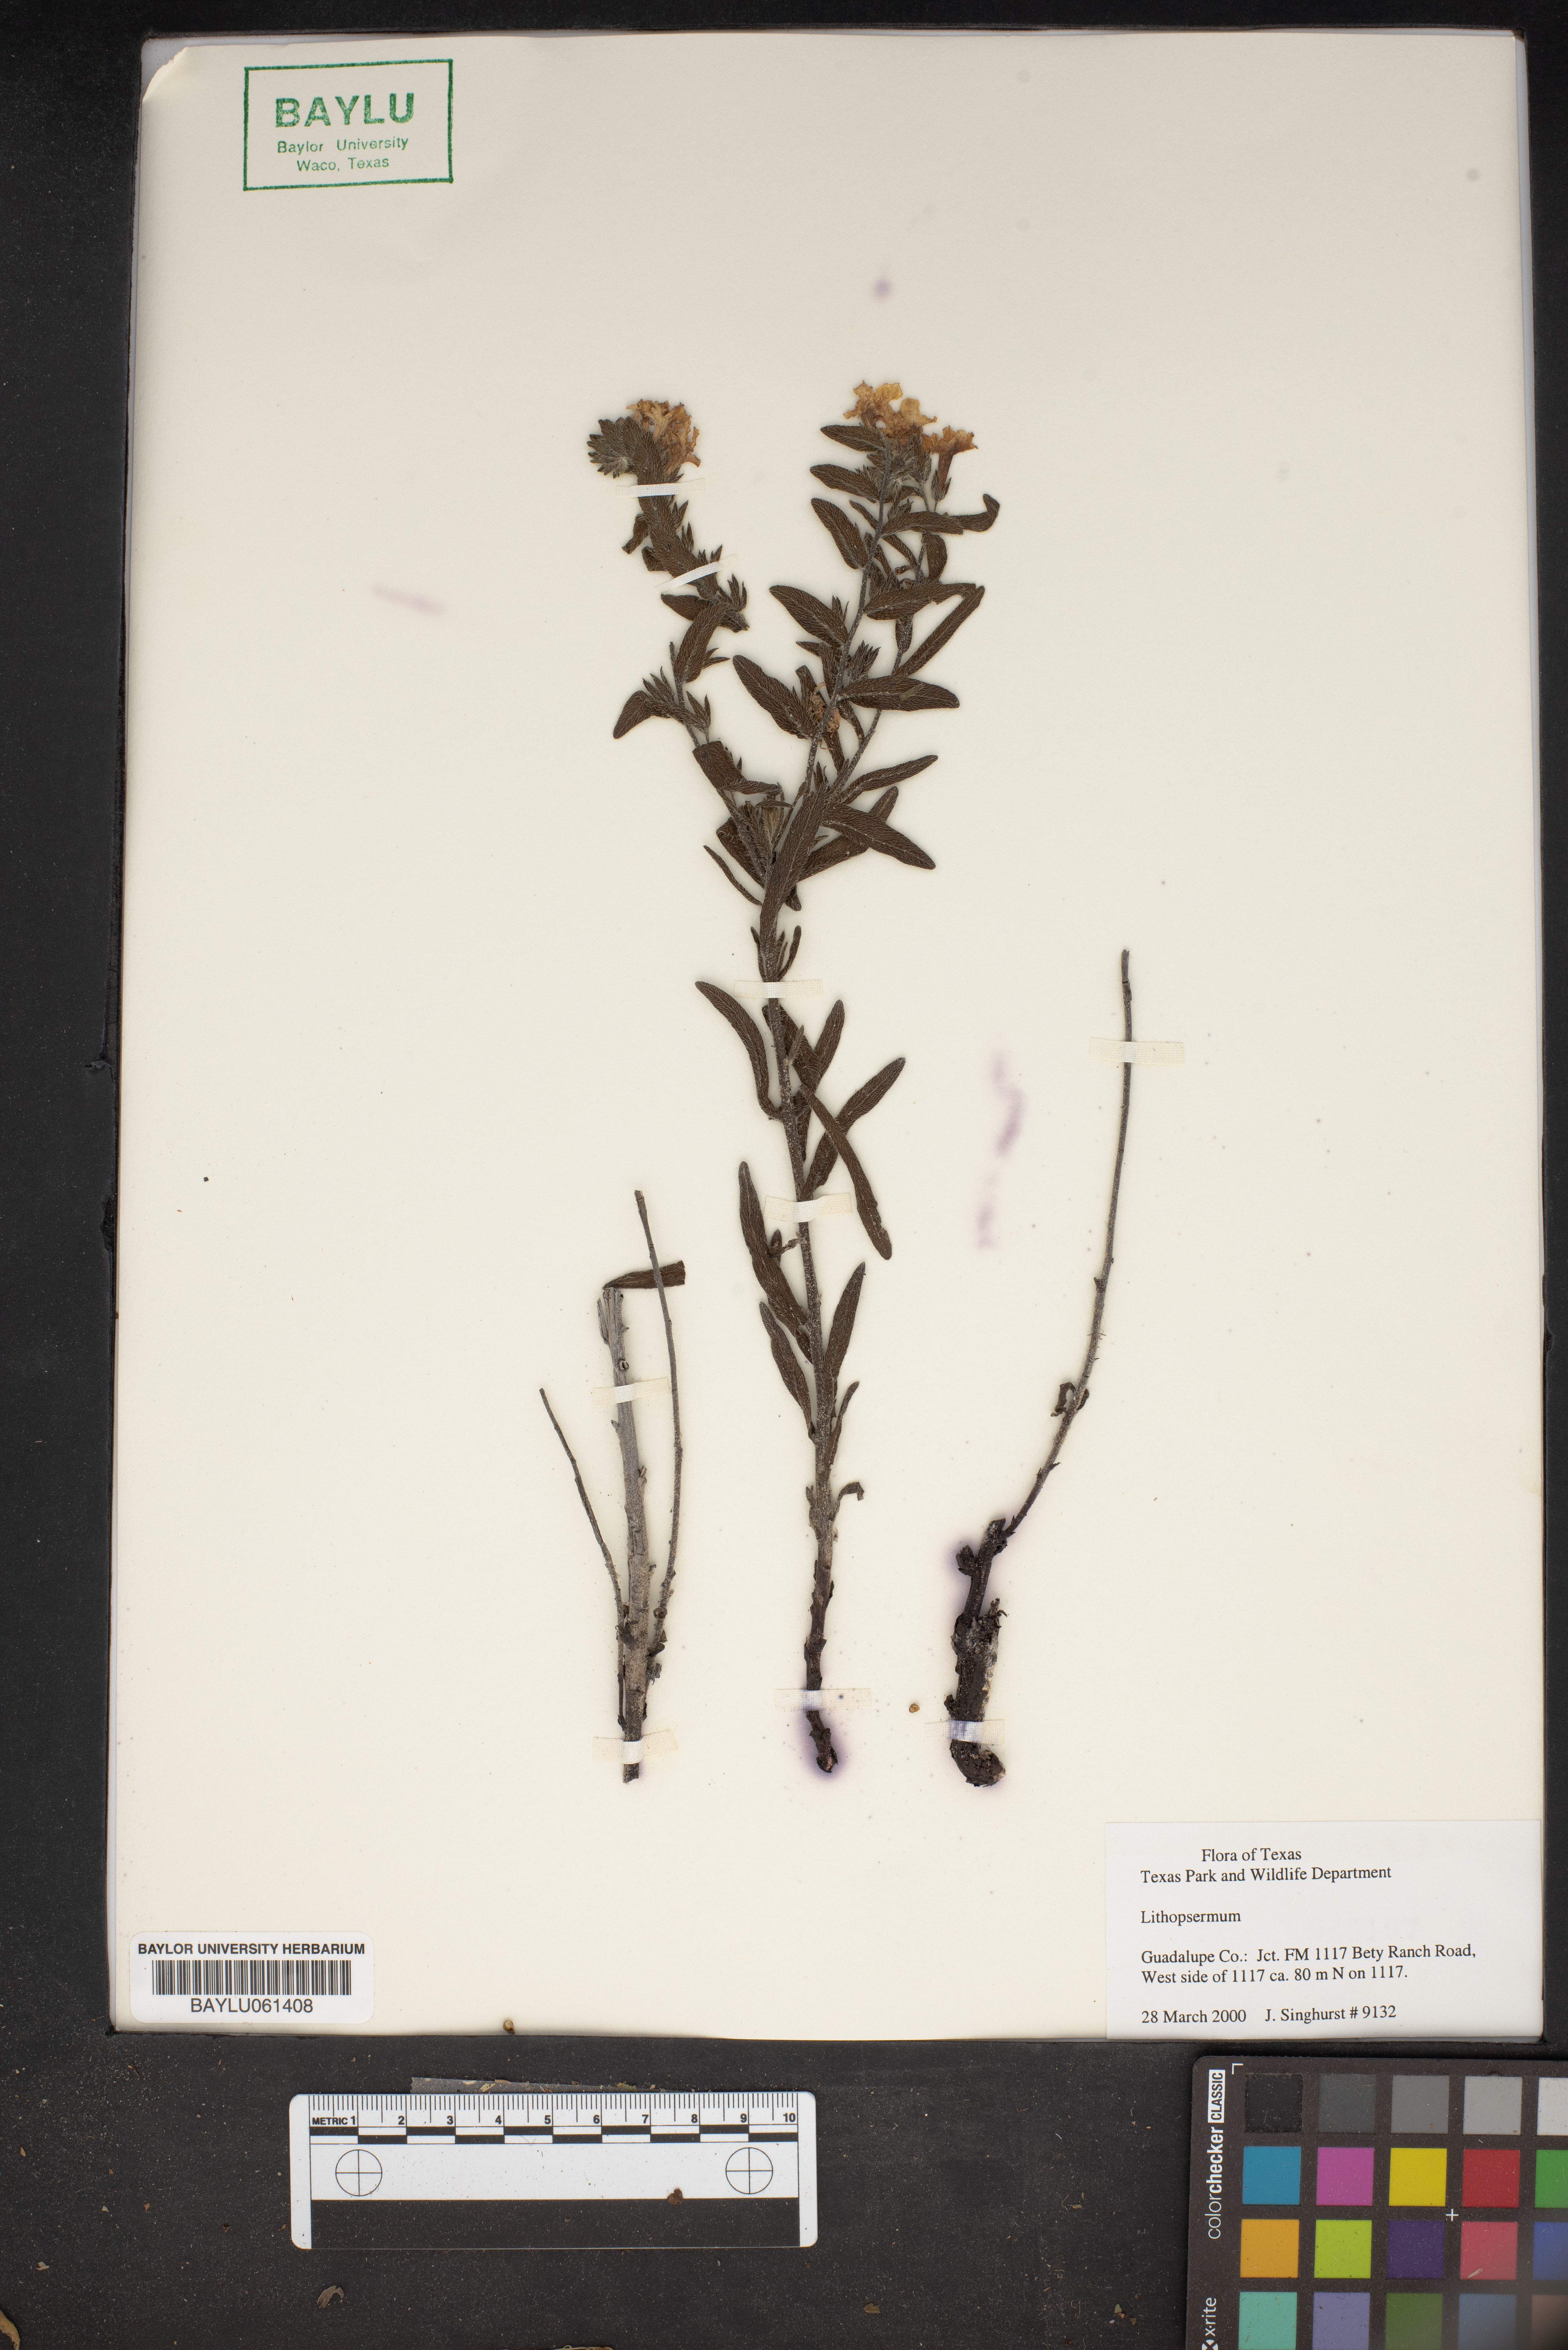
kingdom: Plantae
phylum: Tracheophyta
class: Magnoliopsida
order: Boraginales
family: Boraginaceae
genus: Lithospermum
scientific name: Lithospermum
